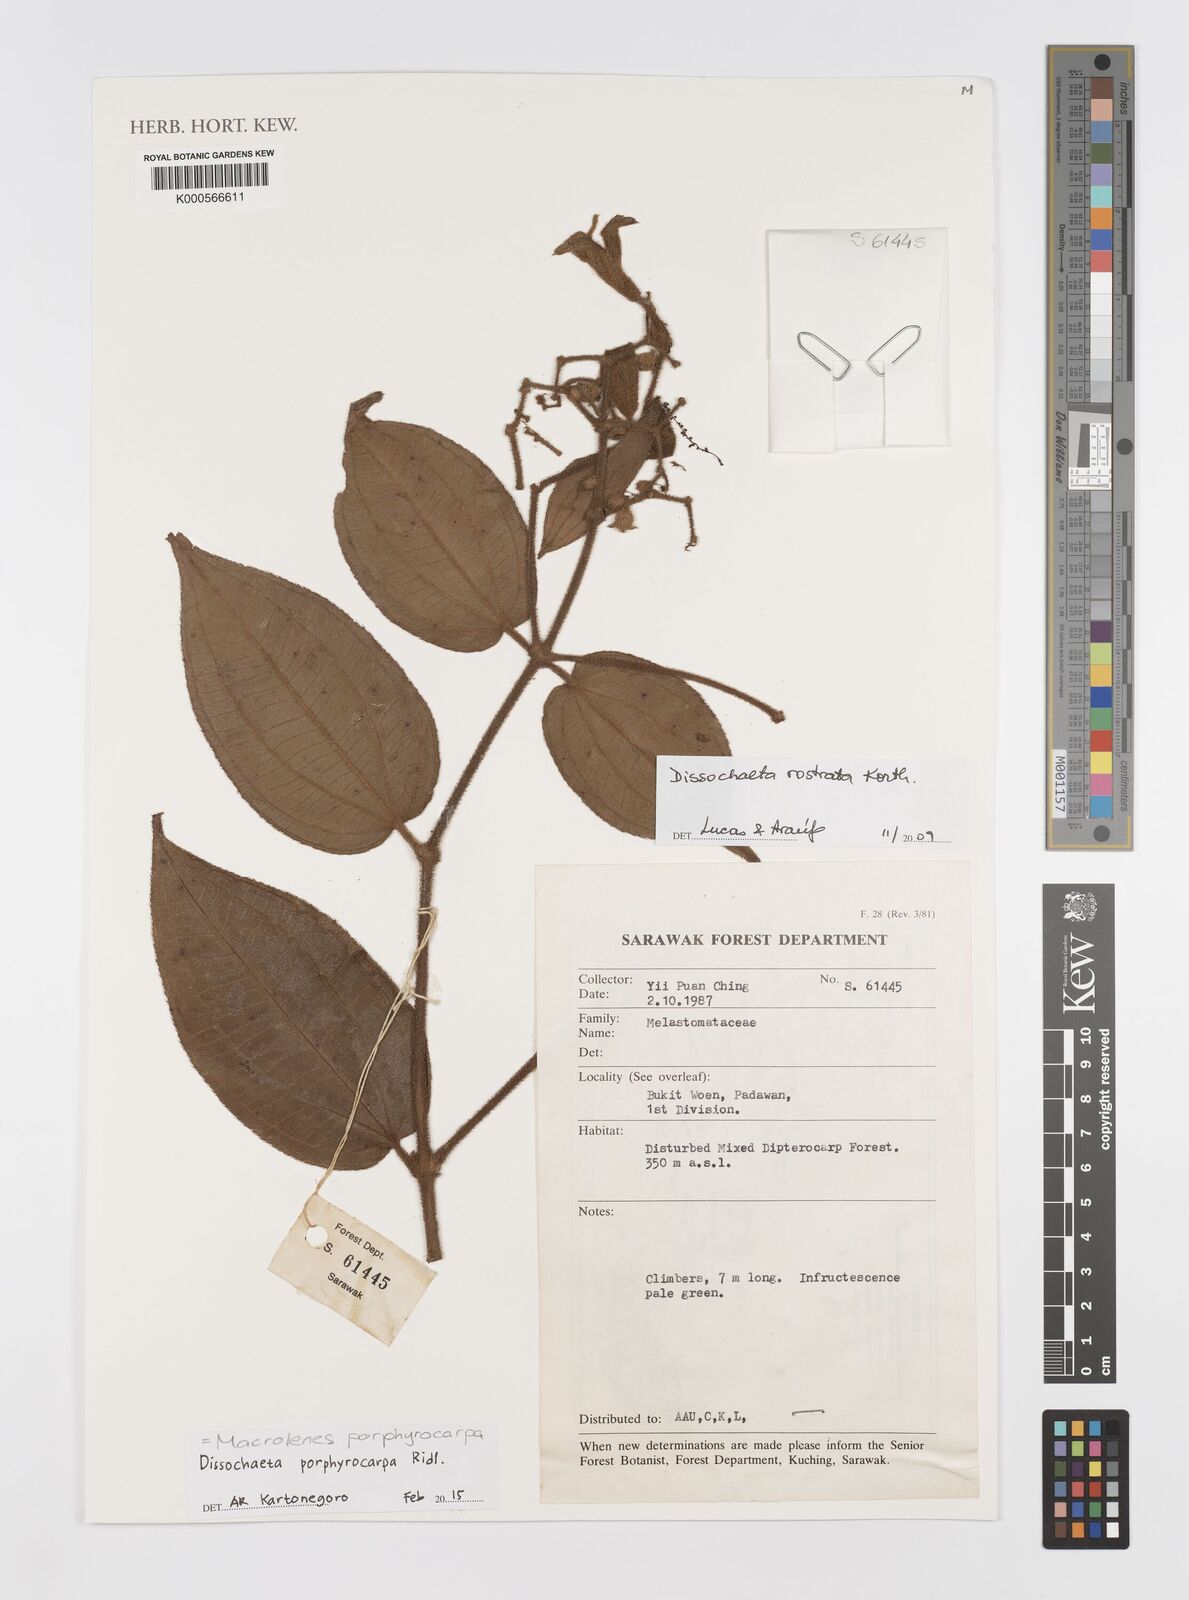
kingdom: Plantae
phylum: Tracheophyta
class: Magnoliopsida
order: Myrtales
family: Melastomataceae
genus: Macrolenes
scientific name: Macrolenes porphyrocarpa
